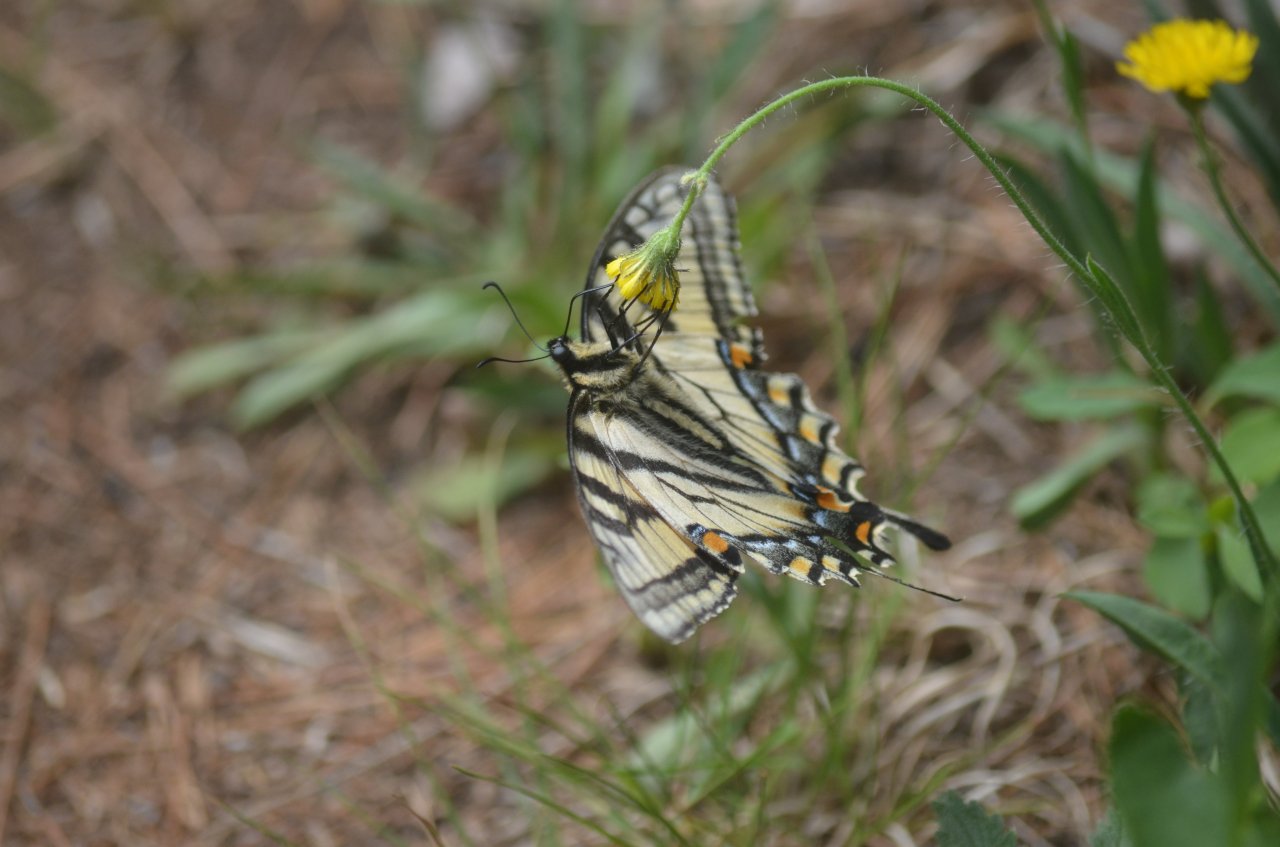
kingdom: Animalia
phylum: Arthropoda
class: Insecta
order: Lepidoptera
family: Papilionidae
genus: Pterourus
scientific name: Pterourus canadensis
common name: Canadian Tiger Swallowtail
